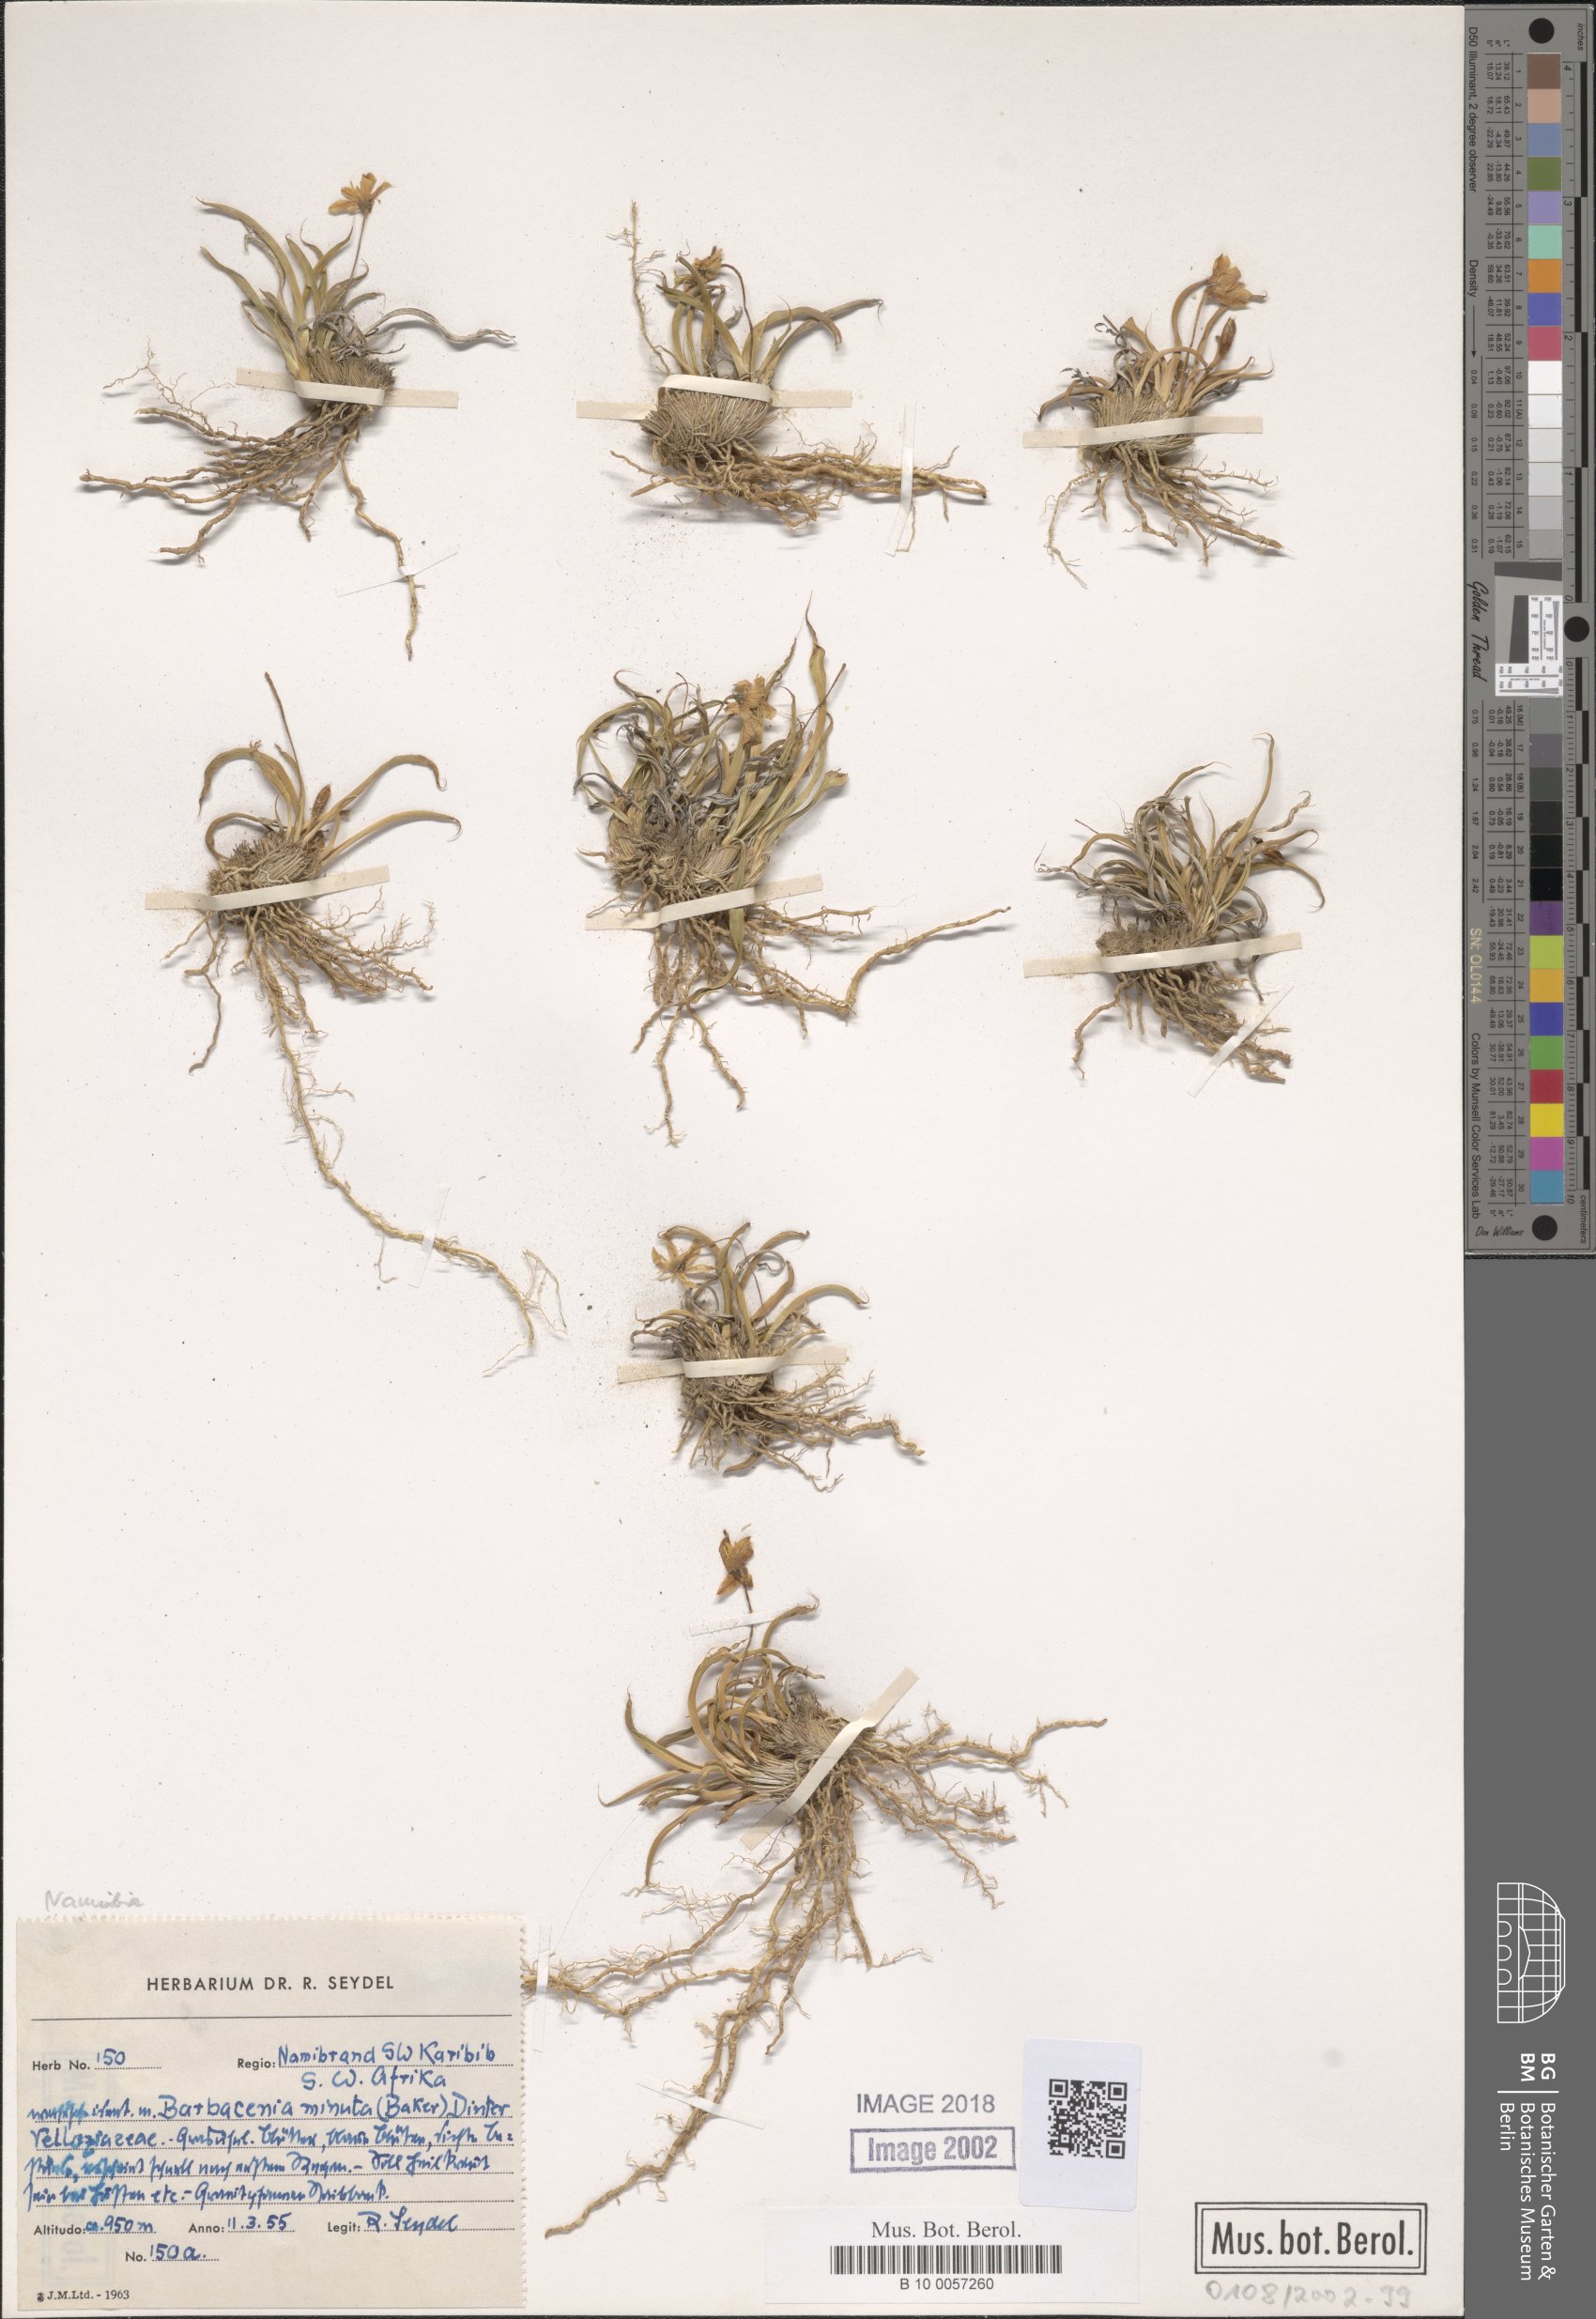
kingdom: Plantae
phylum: Tracheophyta
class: Liliopsida
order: Pandanales
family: Velloziaceae
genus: Xerophyta
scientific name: Xerophyta elegans
